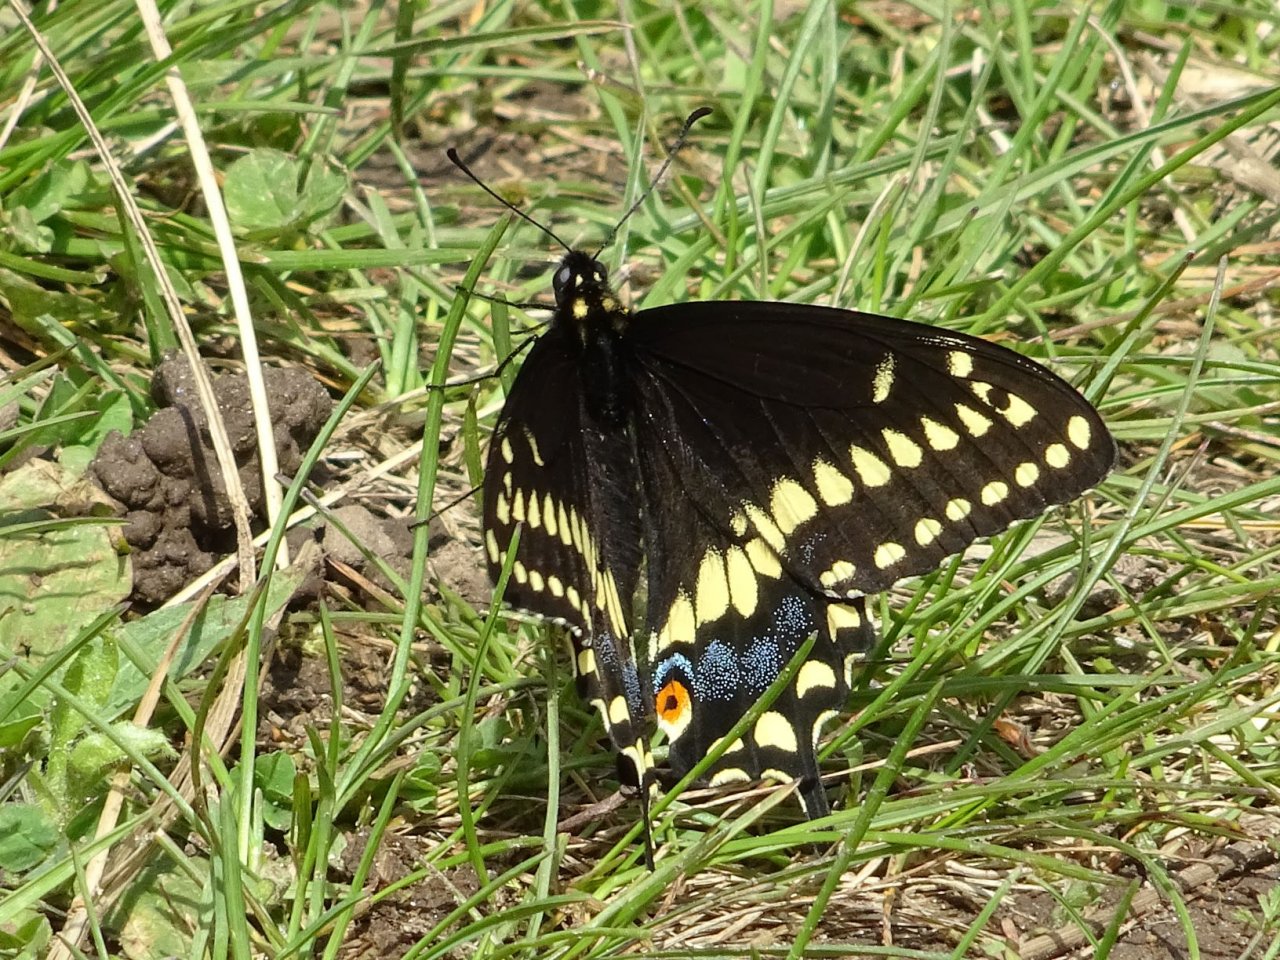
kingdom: Animalia
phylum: Arthropoda
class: Insecta
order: Lepidoptera
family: Papilionidae
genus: Papilio
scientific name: Papilio polyxenes
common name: Black Swallowtail
